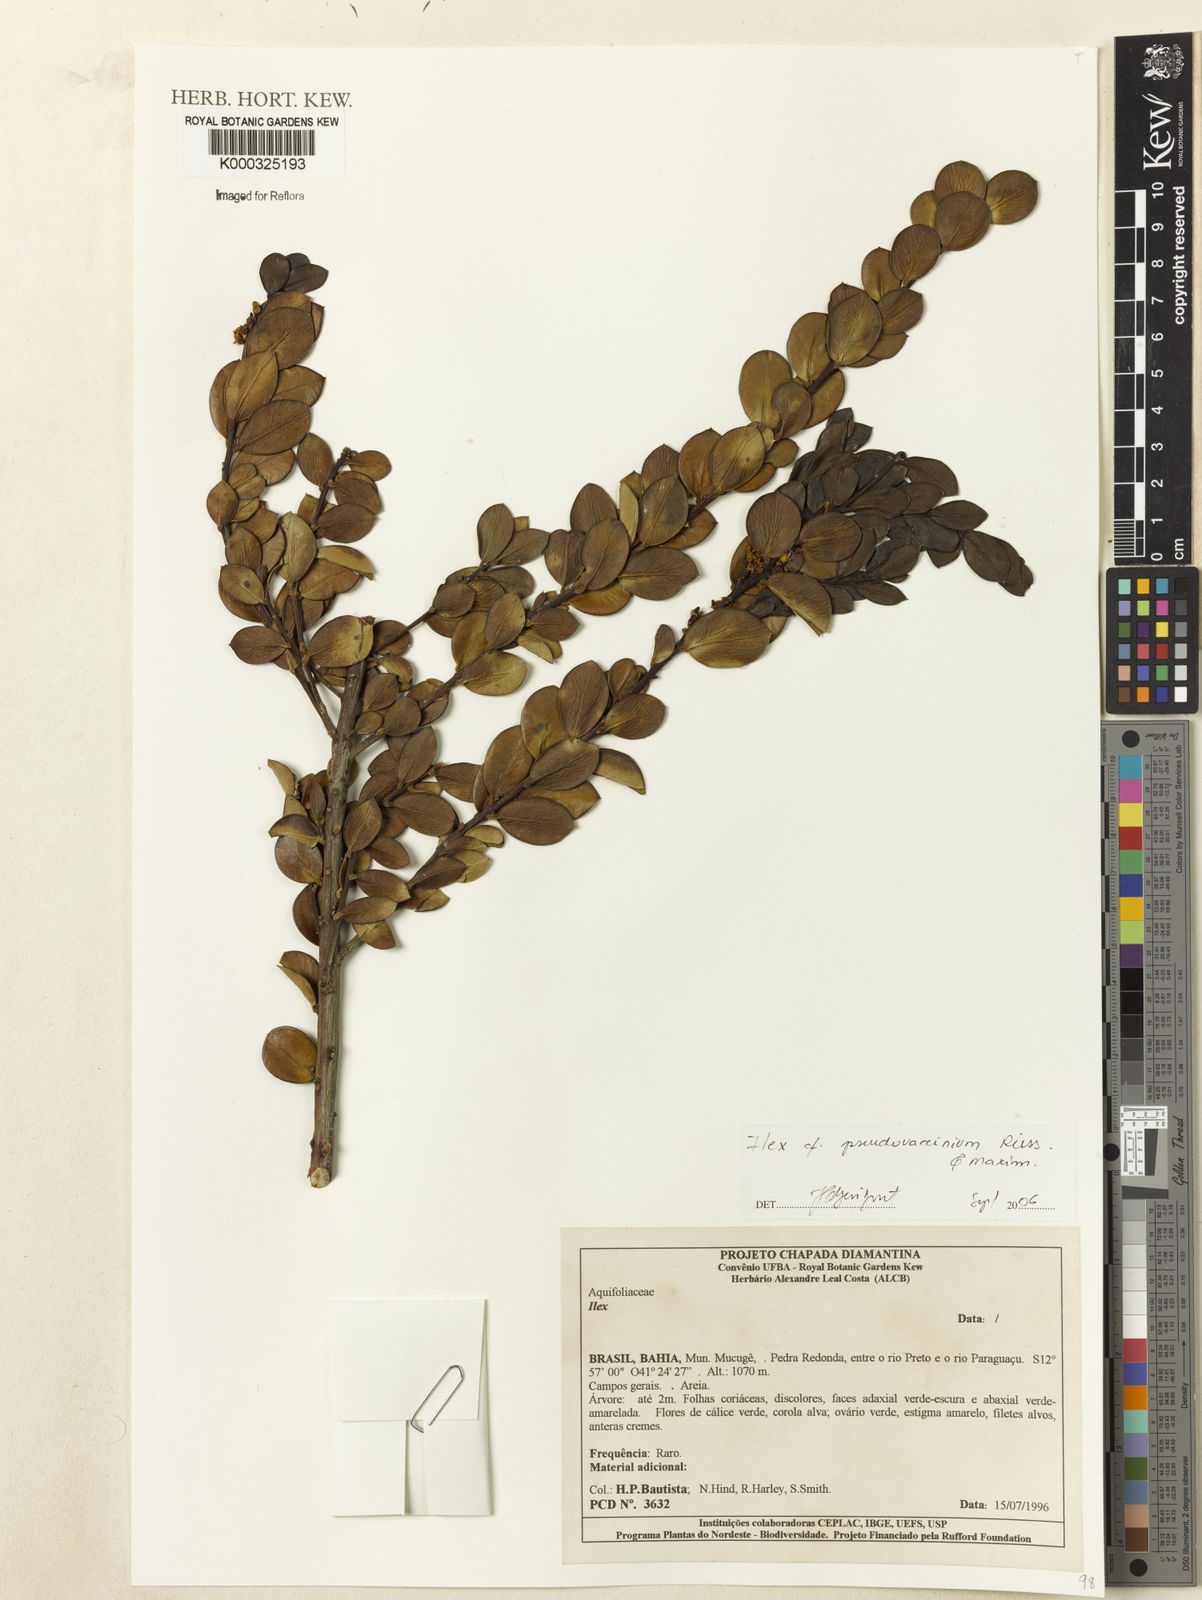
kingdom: Plantae
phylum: Tracheophyta
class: Magnoliopsida
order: Aquifoliales
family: Aquifoliaceae
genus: Ilex
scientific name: Ilex pseudovaccinium
